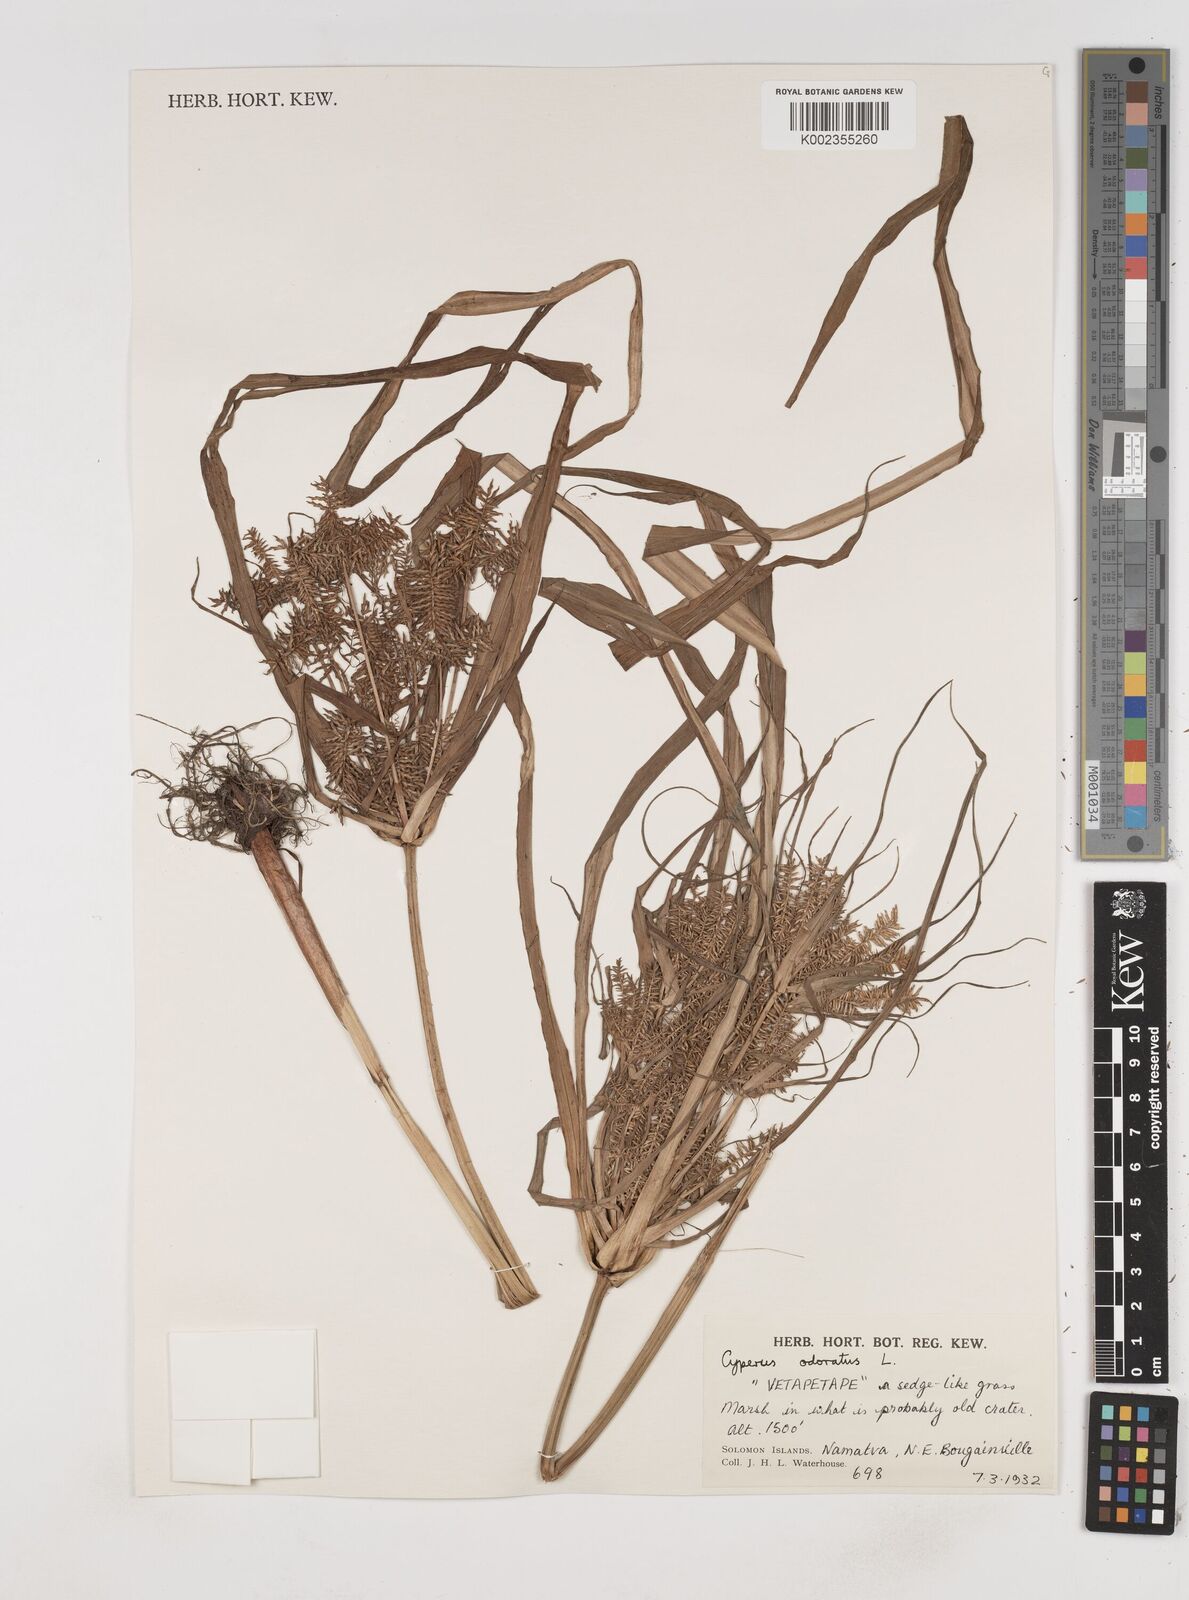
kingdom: Plantae
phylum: Tracheophyta
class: Liliopsida
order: Poales
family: Cyperaceae
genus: Cyperus
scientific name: Cyperus odoratus
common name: Fragrant flatsedge
